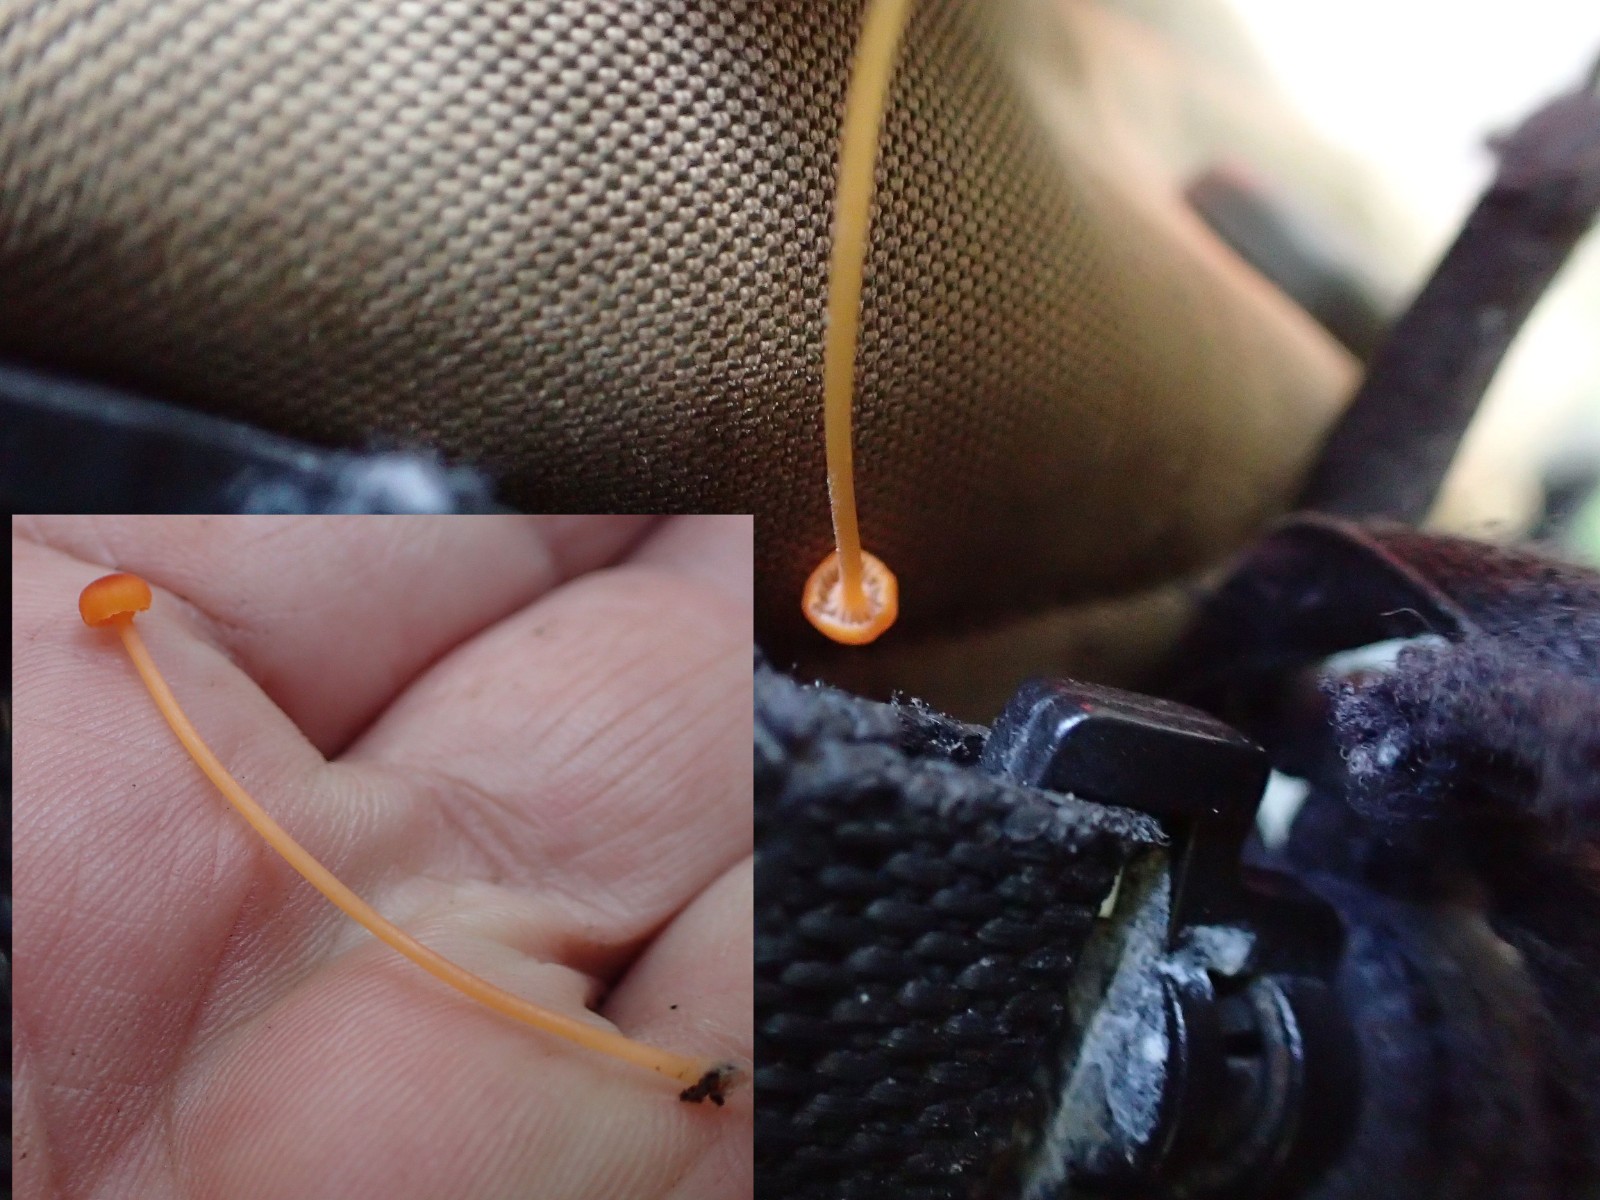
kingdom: Fungi
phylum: Basidiomycota
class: Agaricomycetes
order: Hymenochaetales
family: Rickenellaceae
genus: Rickenella
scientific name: Rickenella fibula
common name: orange mosnavlehat
